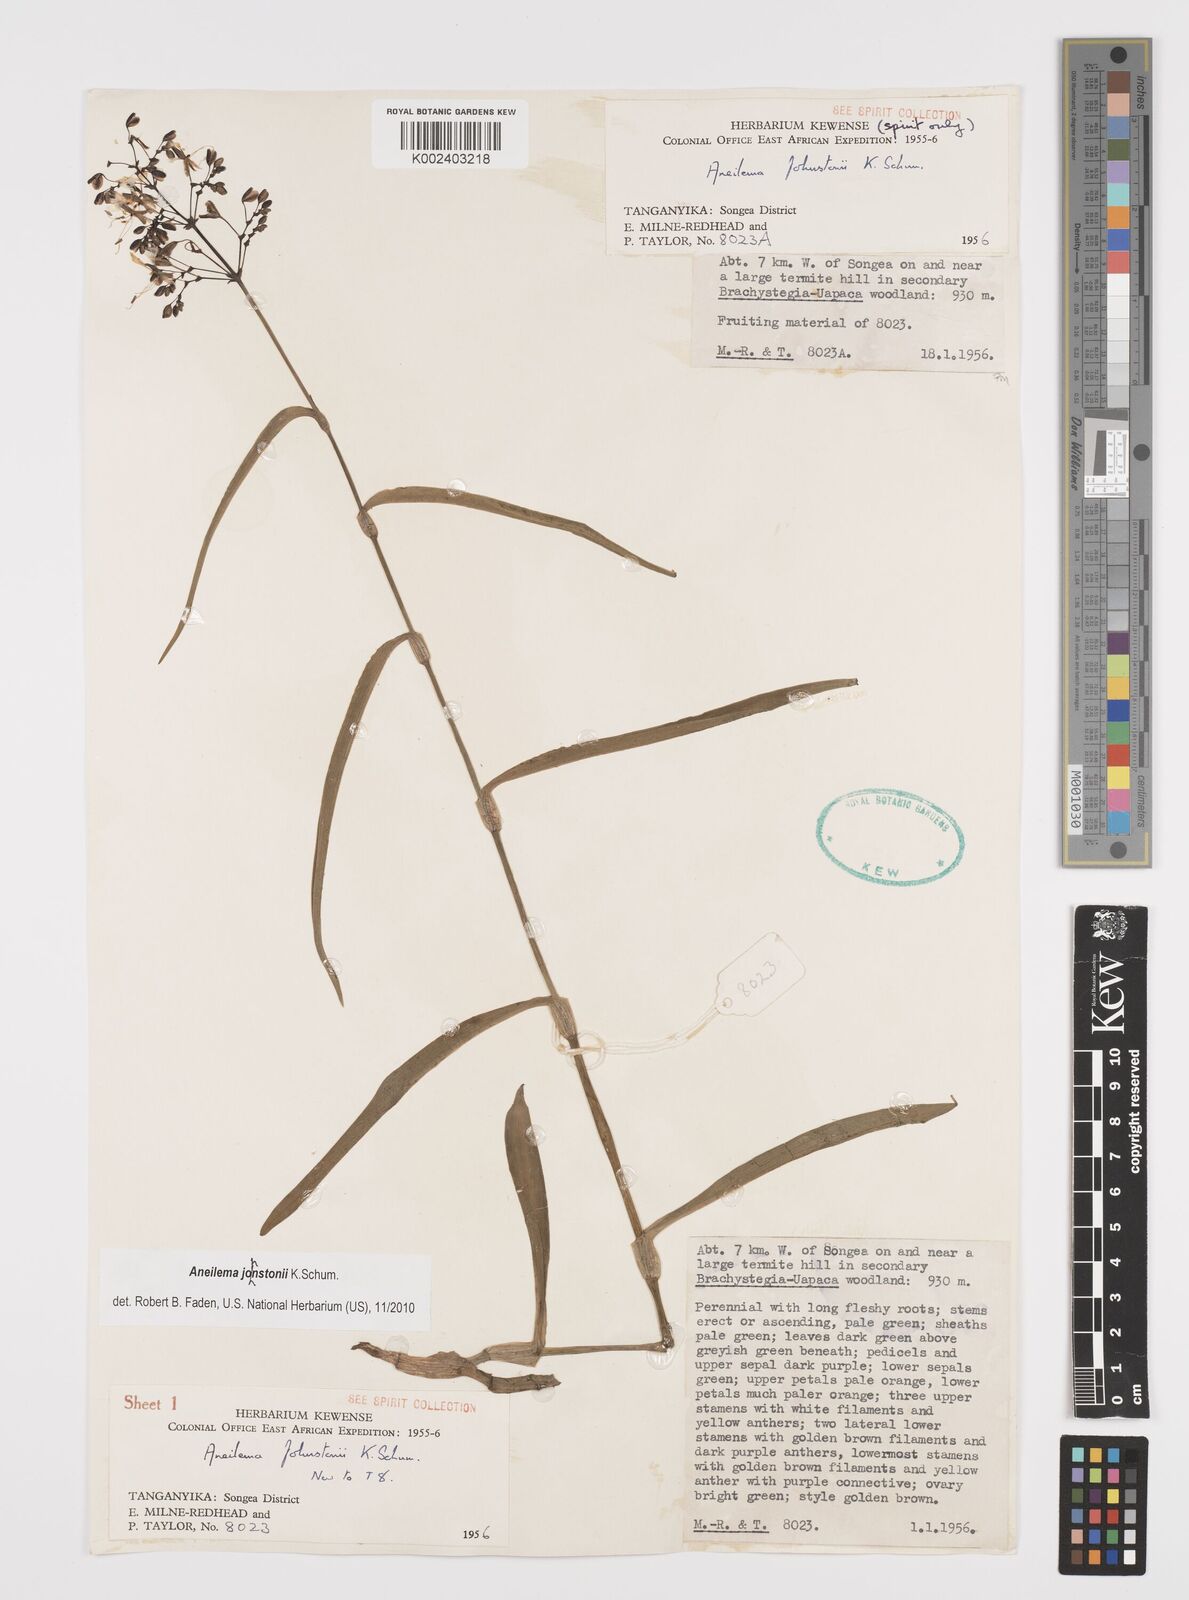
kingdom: Plantae
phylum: Tracheophyta
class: Liliopsida
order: Commelinales
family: Commelinaceae
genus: Aneilema
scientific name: Aneilema johnstonii
